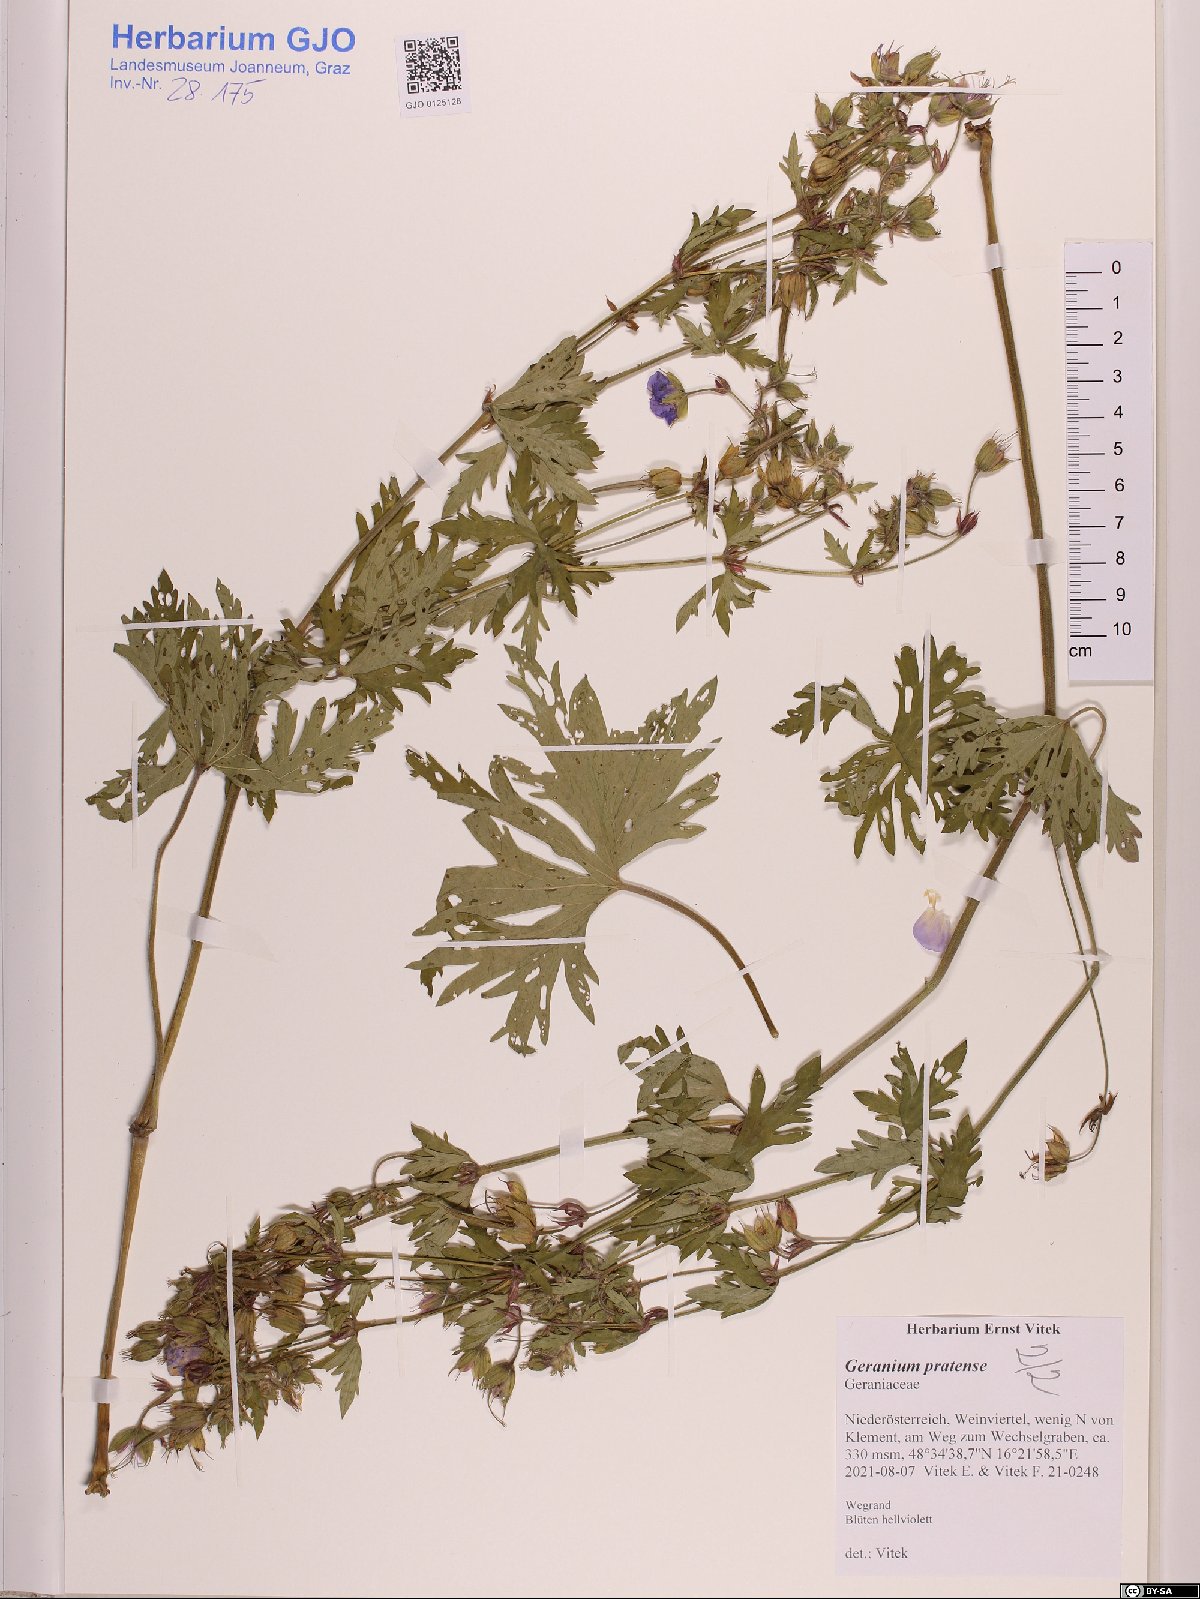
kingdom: Plantae
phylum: Tracheophyta
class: Magnoliopsida
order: Geraniales
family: Geraniaceae
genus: Geranium
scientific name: Geranium pratense
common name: Meadow crane's-bill
